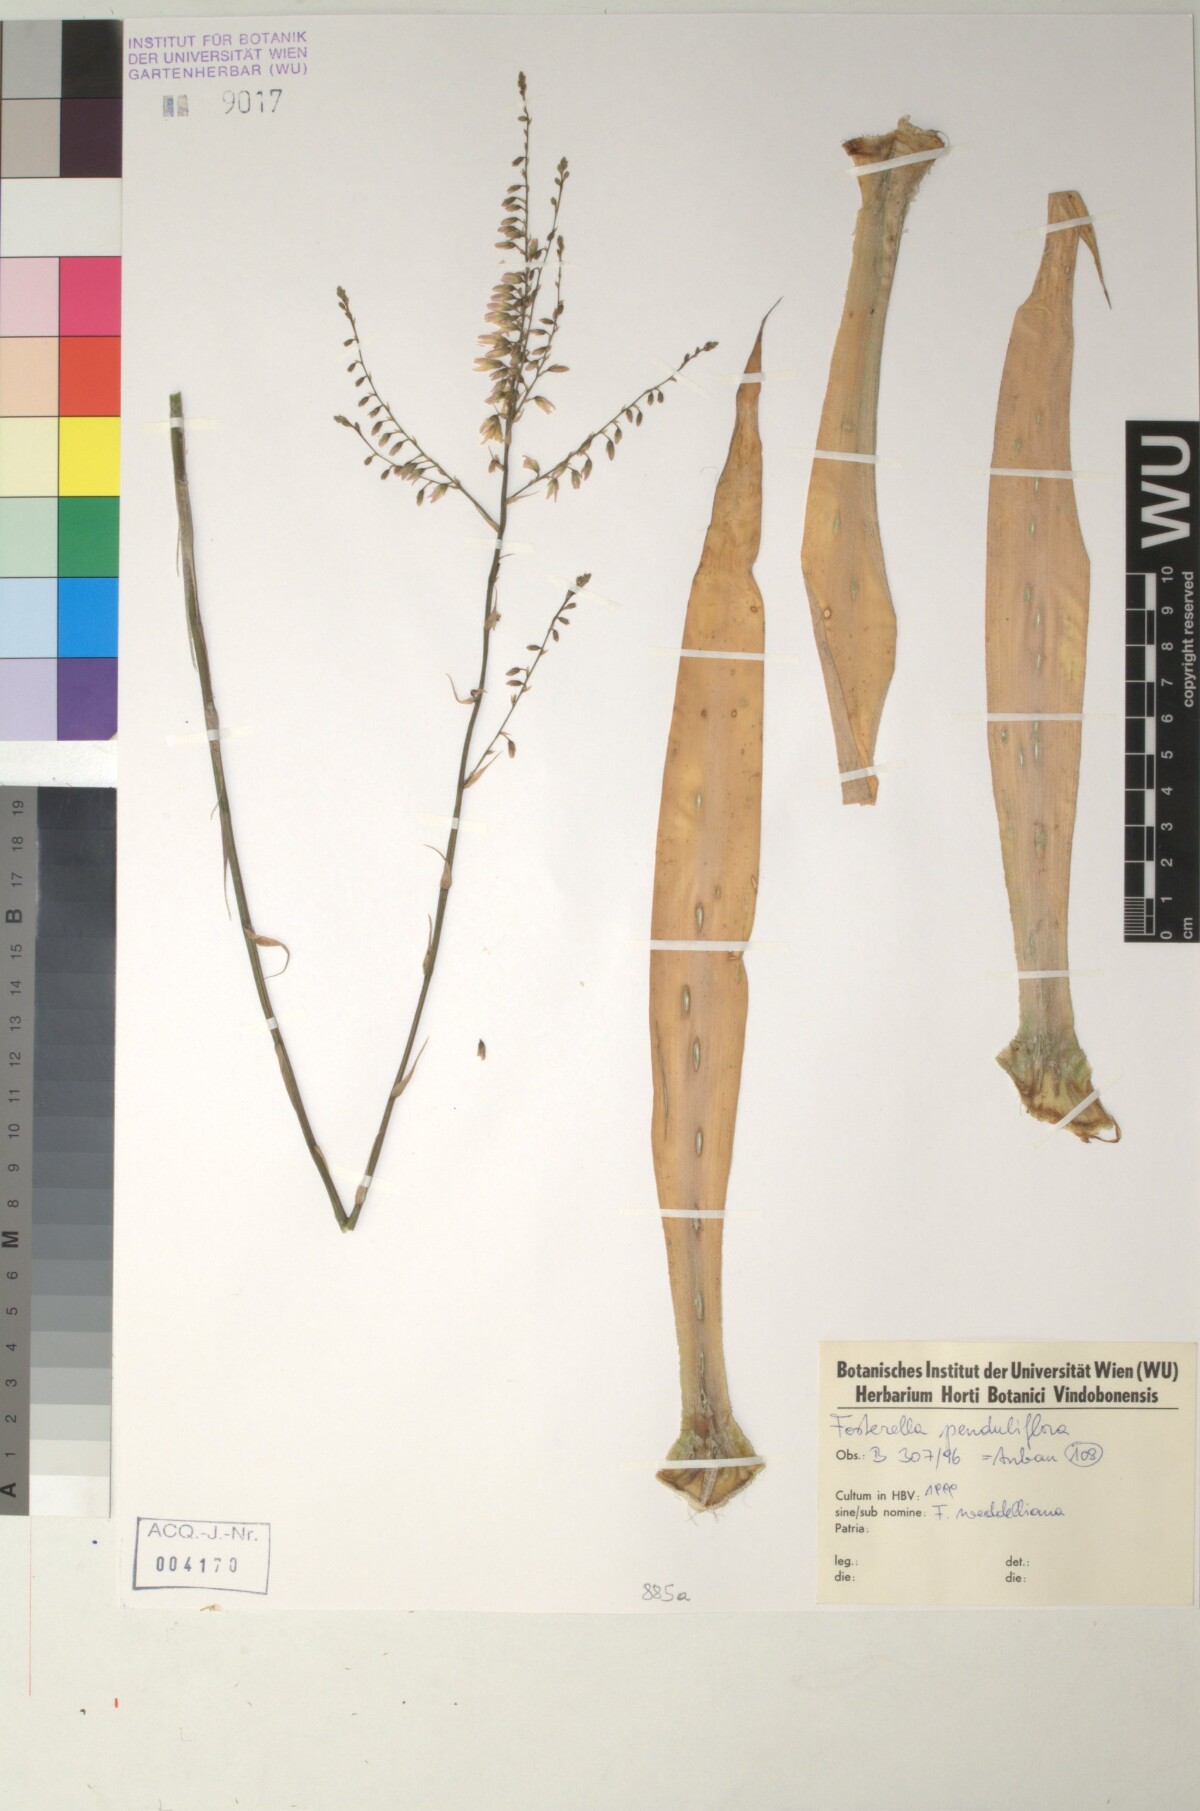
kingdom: Plantae
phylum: Tracheophyta
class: Liliopsida
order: Poales
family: Bromeliaceae
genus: Fosterella
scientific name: Fosterella penduliflora
